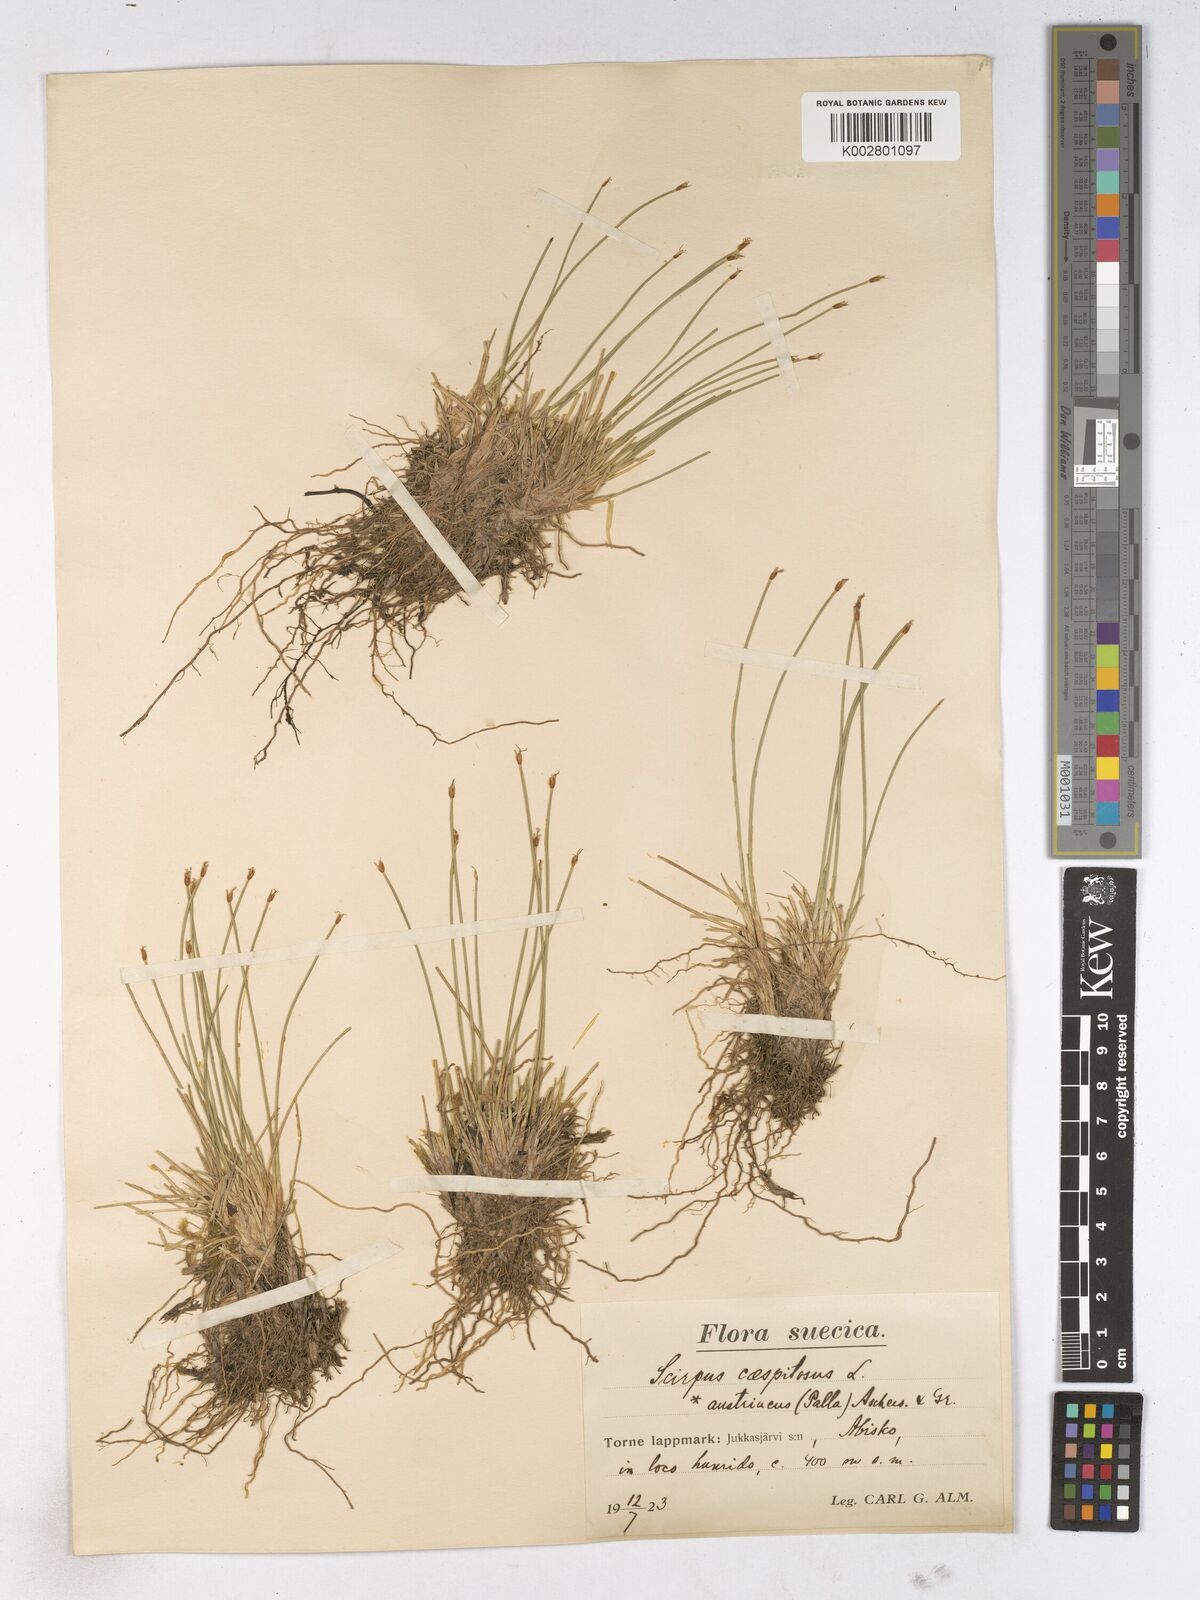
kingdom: Plantae
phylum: Tracheophyta
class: Liliopsida
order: Poales
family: Cyperaceae
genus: Trichophorum
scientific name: Trichophorum cespitosum
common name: Cespitose bulrush
